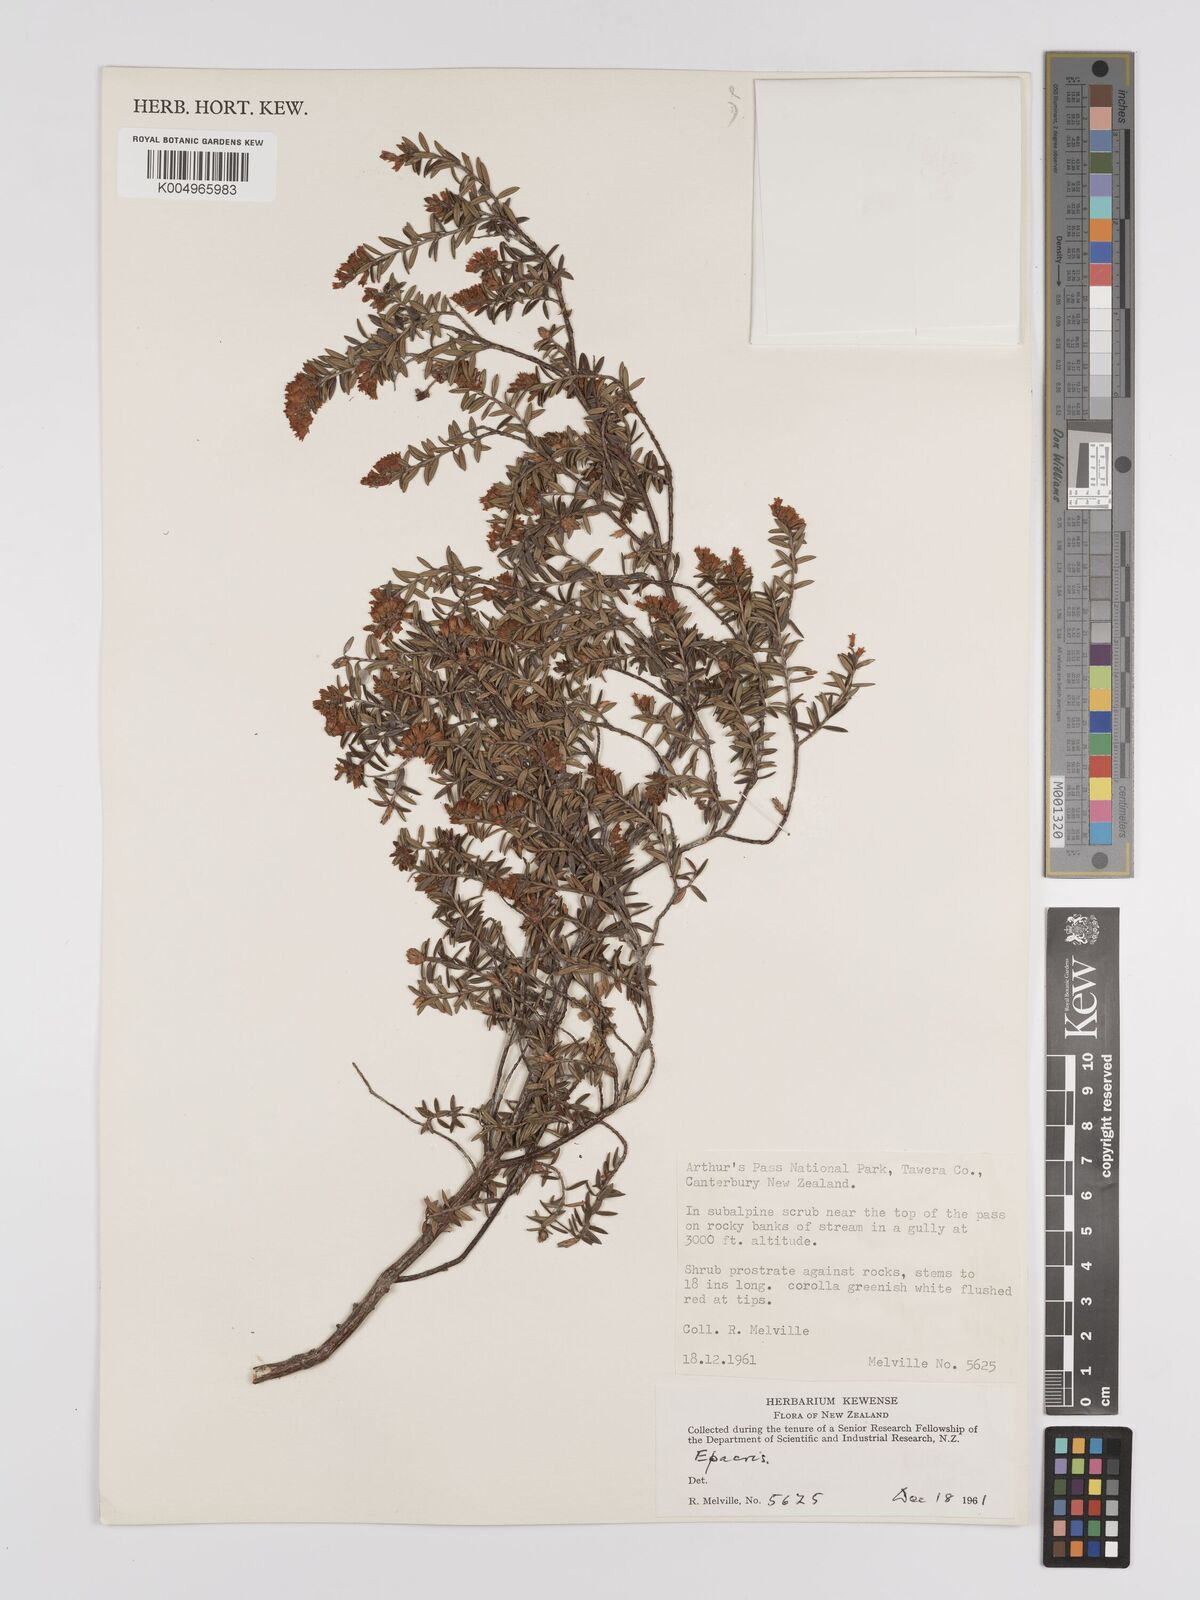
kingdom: Plantae
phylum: Tracheophyta
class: Magnoliopsida
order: Ericales
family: Ericaceae
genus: Epacris
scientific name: Epacris
